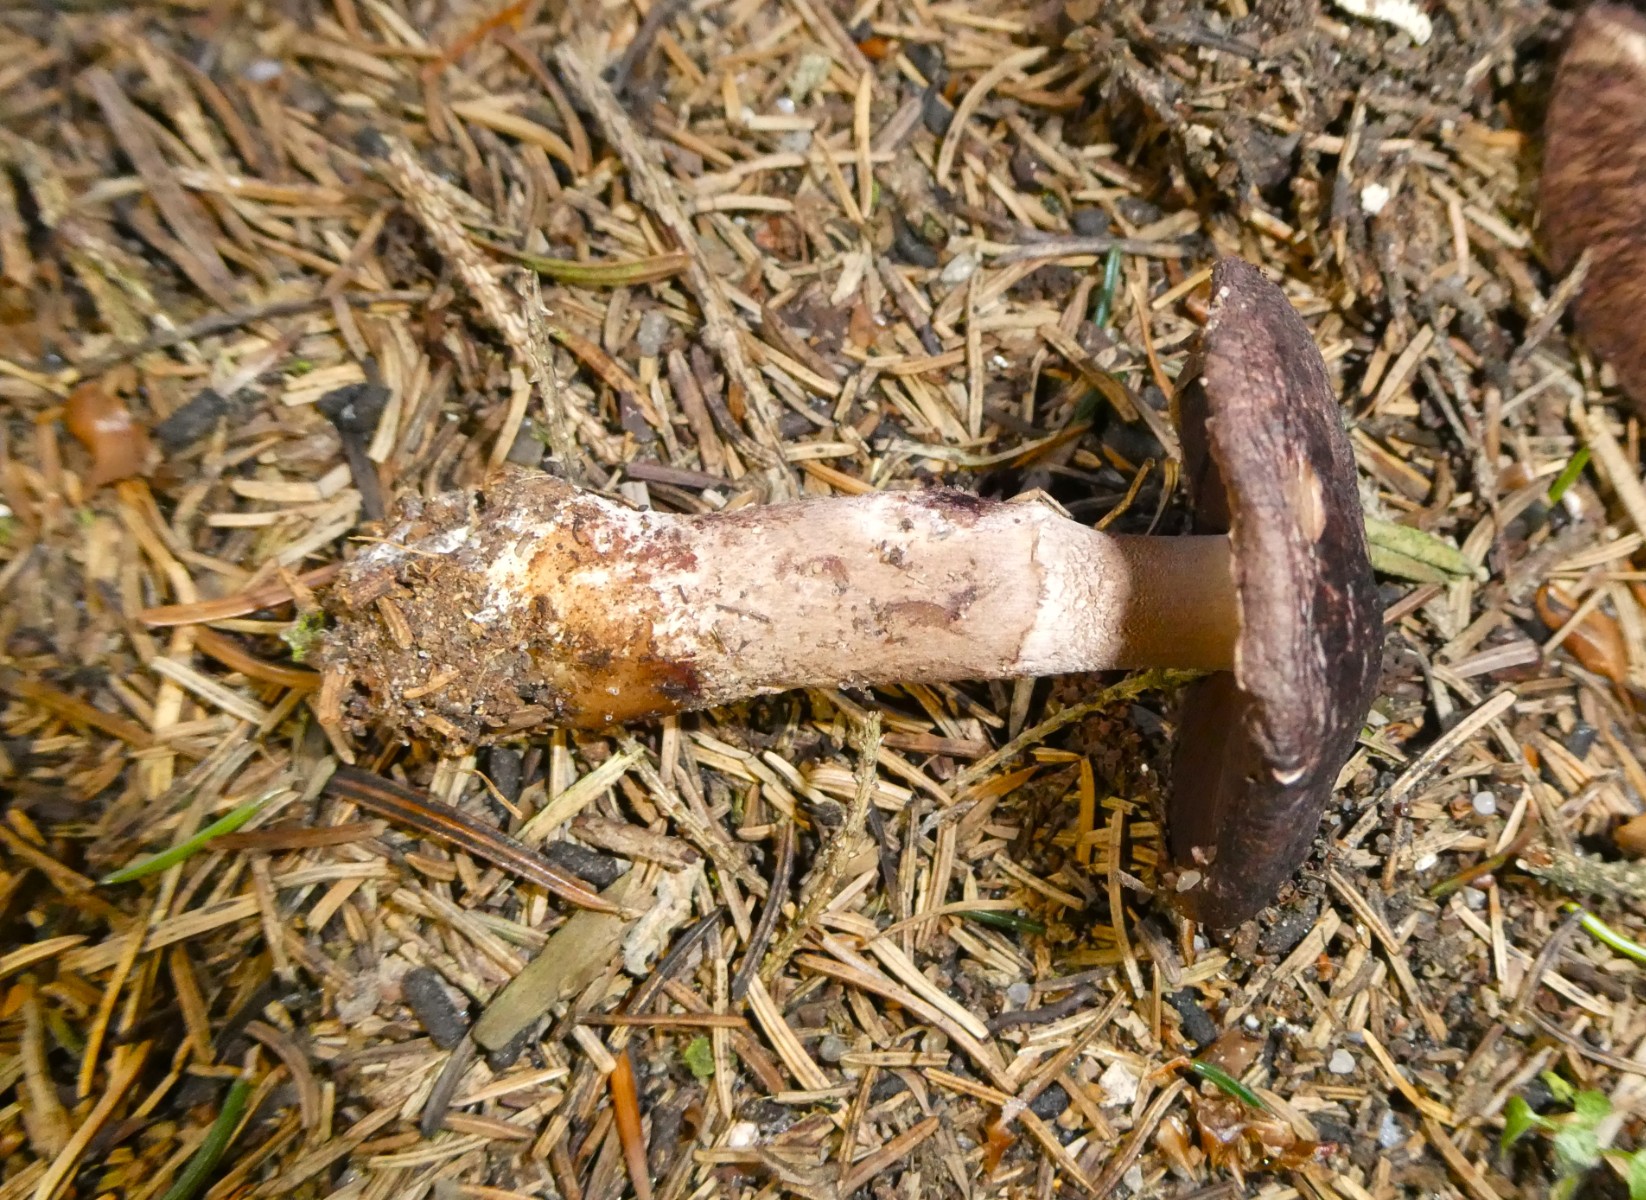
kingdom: Fungi
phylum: Basidiomycota
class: Agaricomycetes
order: Agaricales
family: Agaricaceae
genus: Agaricus
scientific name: Agaricus
